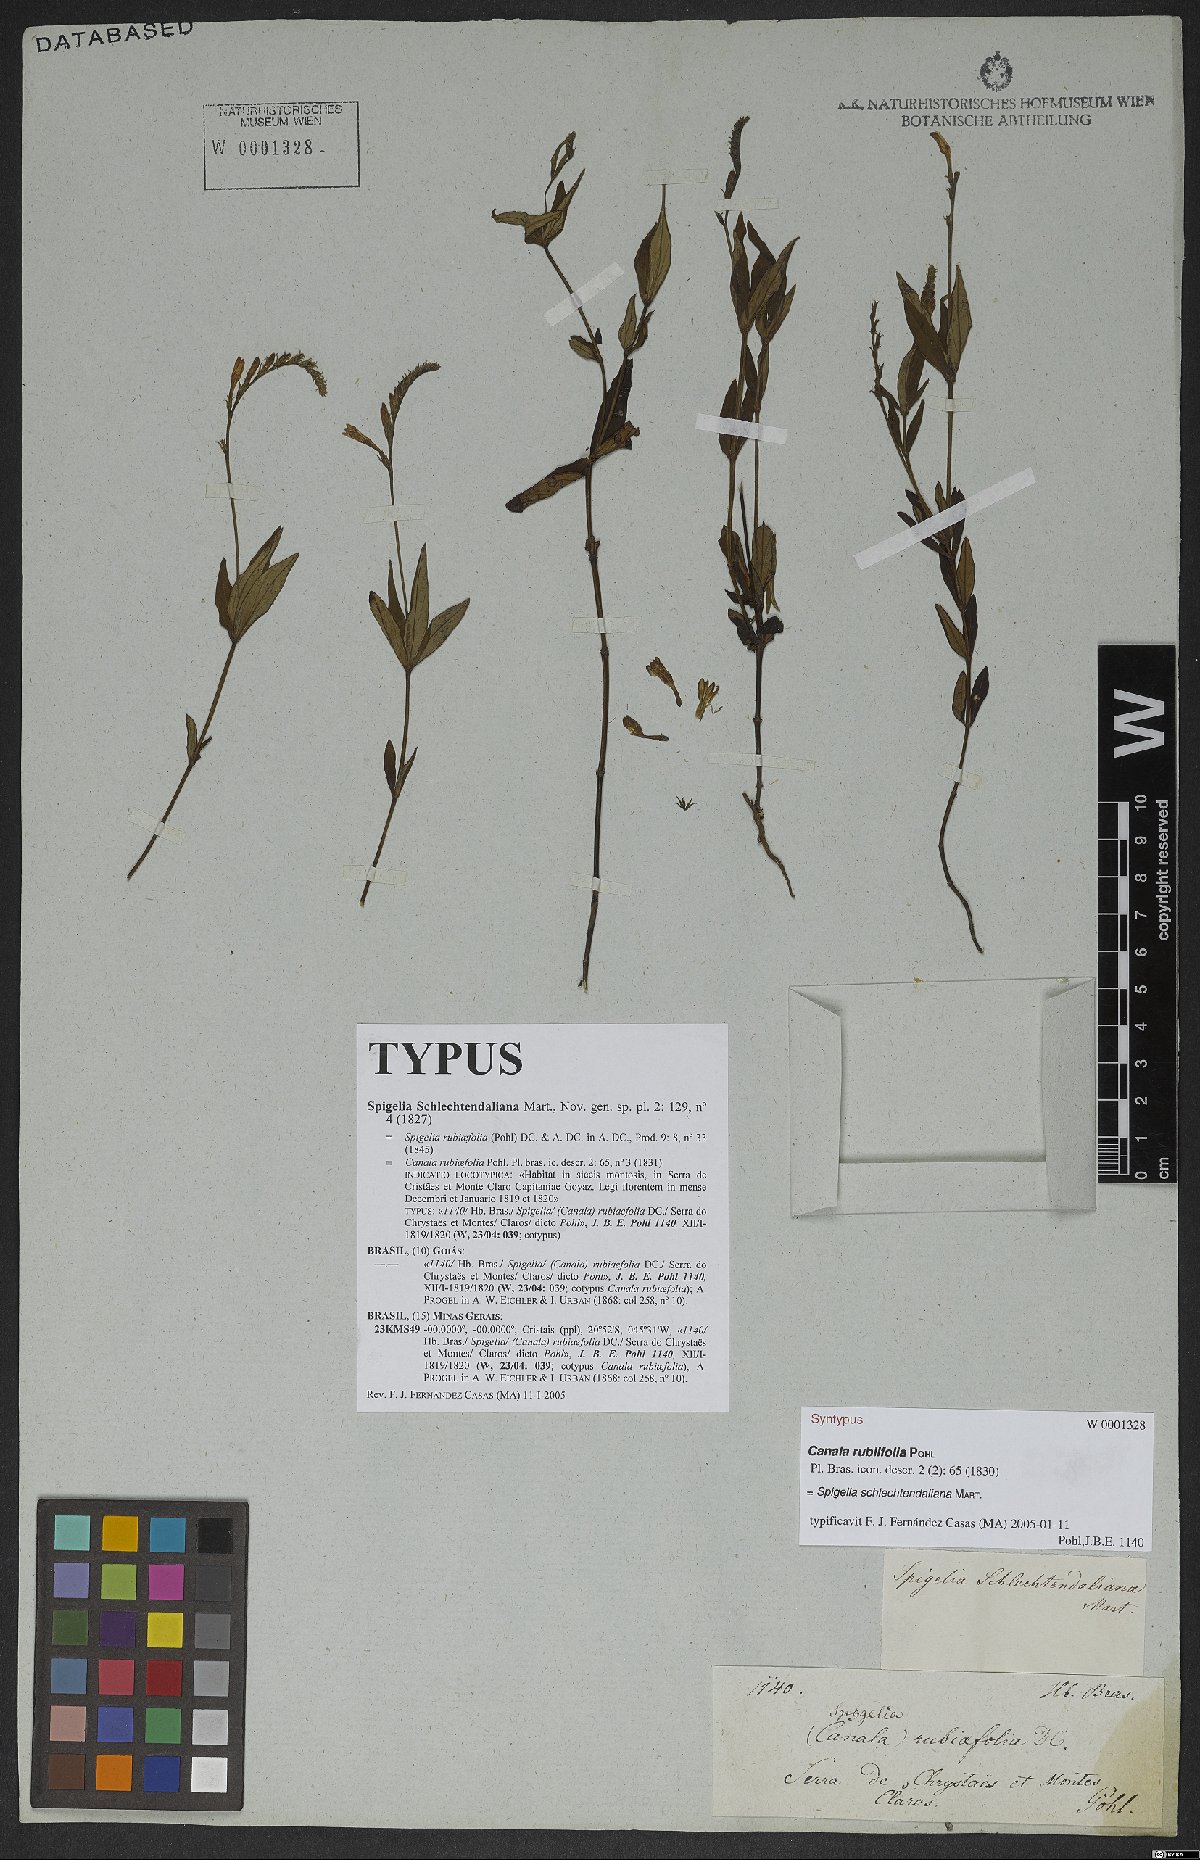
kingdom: Plantae
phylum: Tracheophyta
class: Magnoliopsida
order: Gentianales
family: Loganiaceae
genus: Spigelia
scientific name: Spigelia schlechtendaliana
